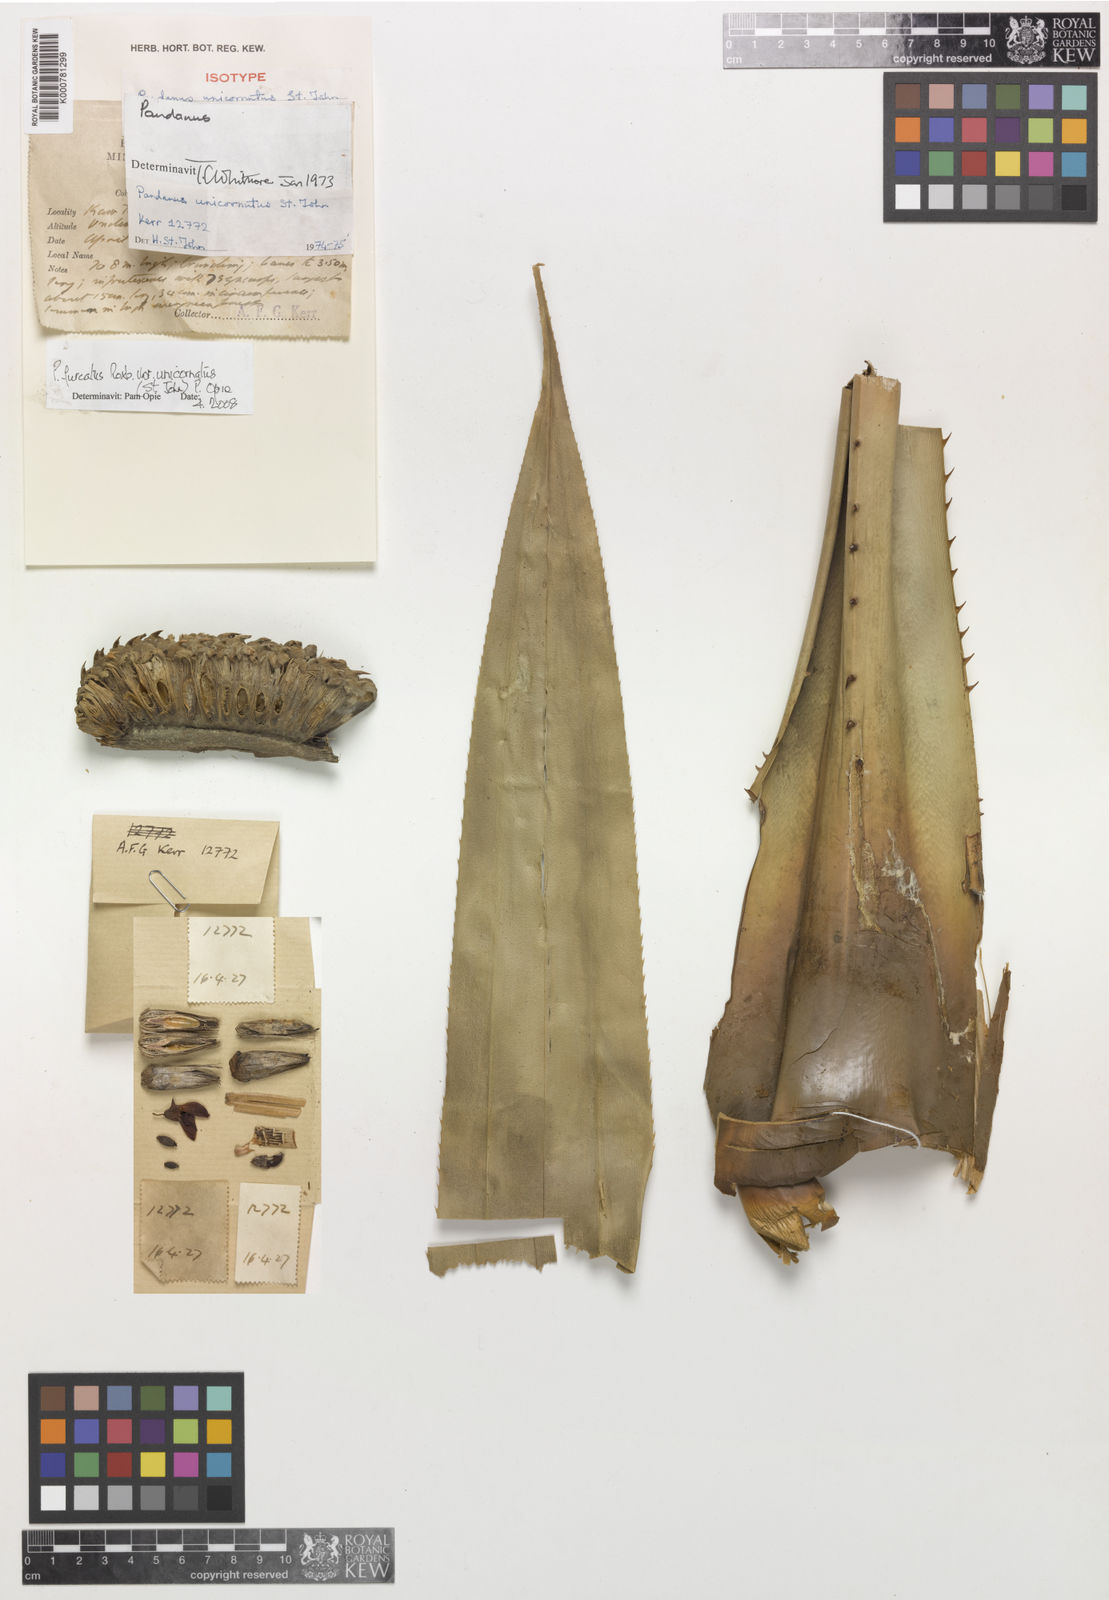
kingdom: Plantae
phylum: Tracheophyta
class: Liliopsida
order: Pandanales
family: Pandanaceae
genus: Pandanus
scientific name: Pandanus penangensis
